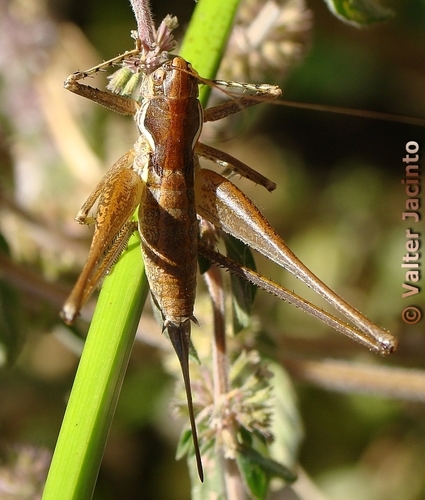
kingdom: Animalia
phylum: Arthropoda
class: Insecta
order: Orthoptera
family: Tettigoniidae
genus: Pterolepis
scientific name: Pterolepis spoliata
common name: Disarmed bush-cricket
